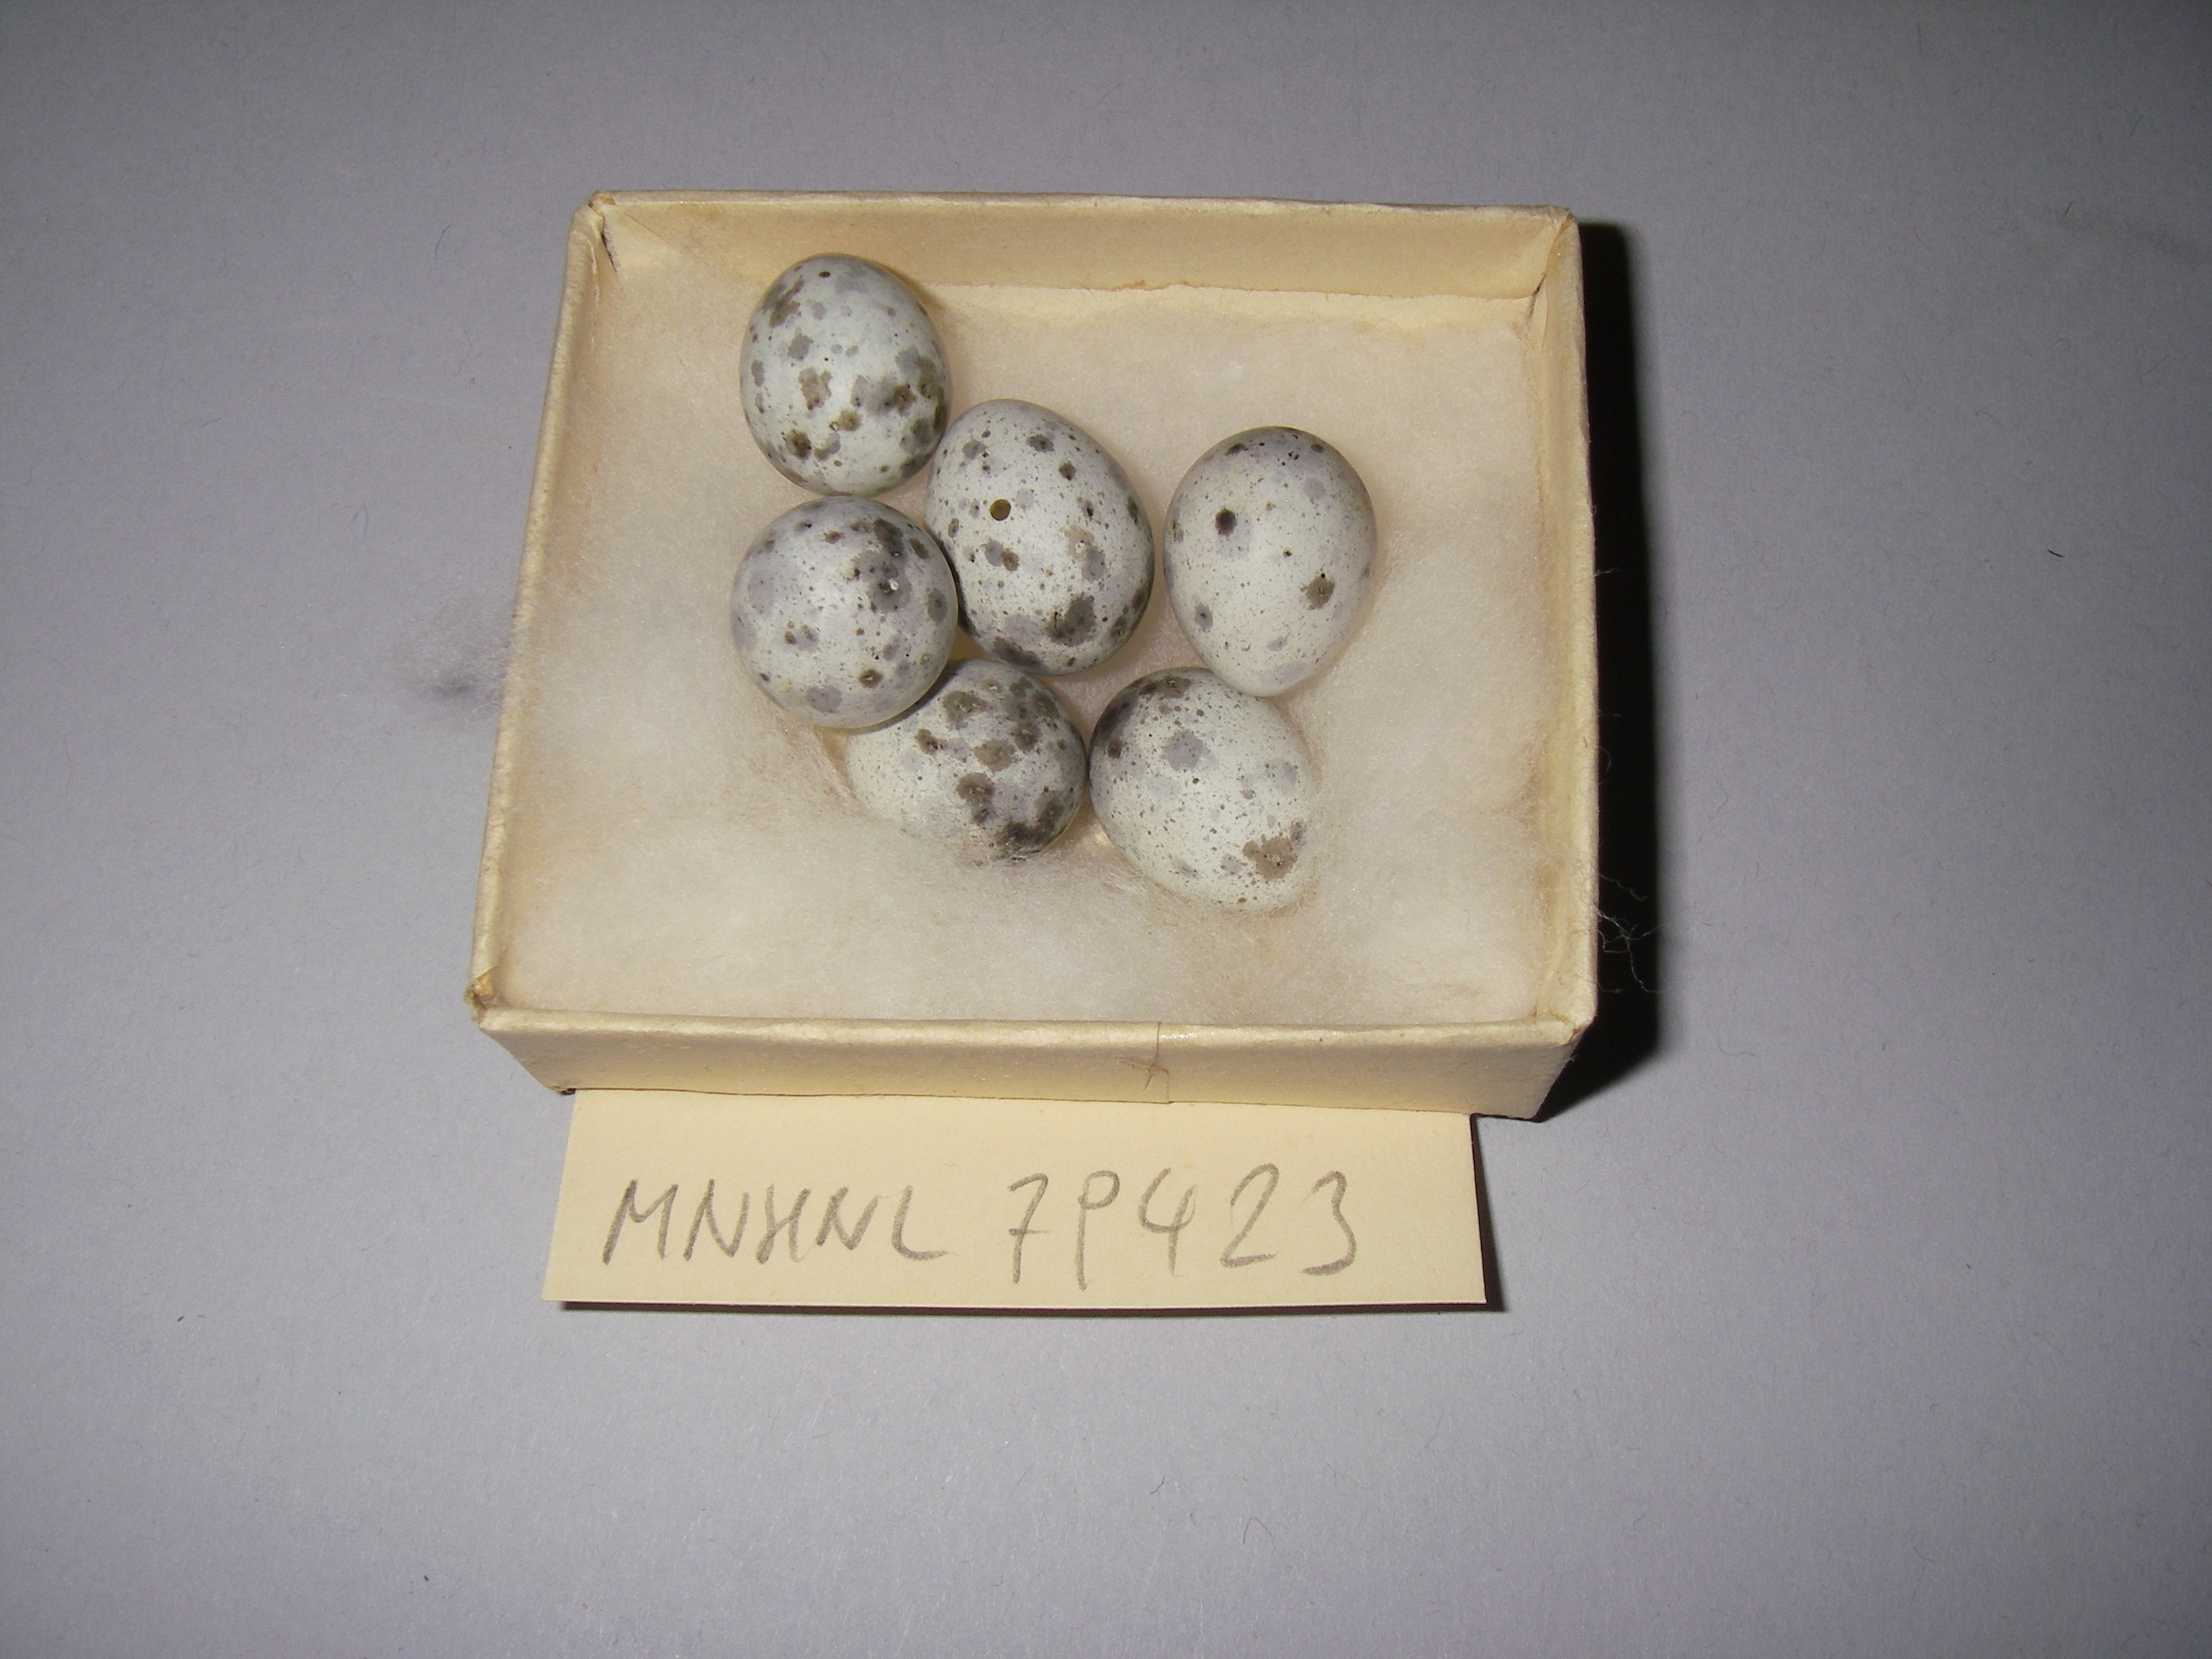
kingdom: Animalia
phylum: Chordata
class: Aves
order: Passeriformes
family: Acrocephalidae
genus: Acrocephalus
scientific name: Acrocephalus palustris
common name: Marsh warbler
